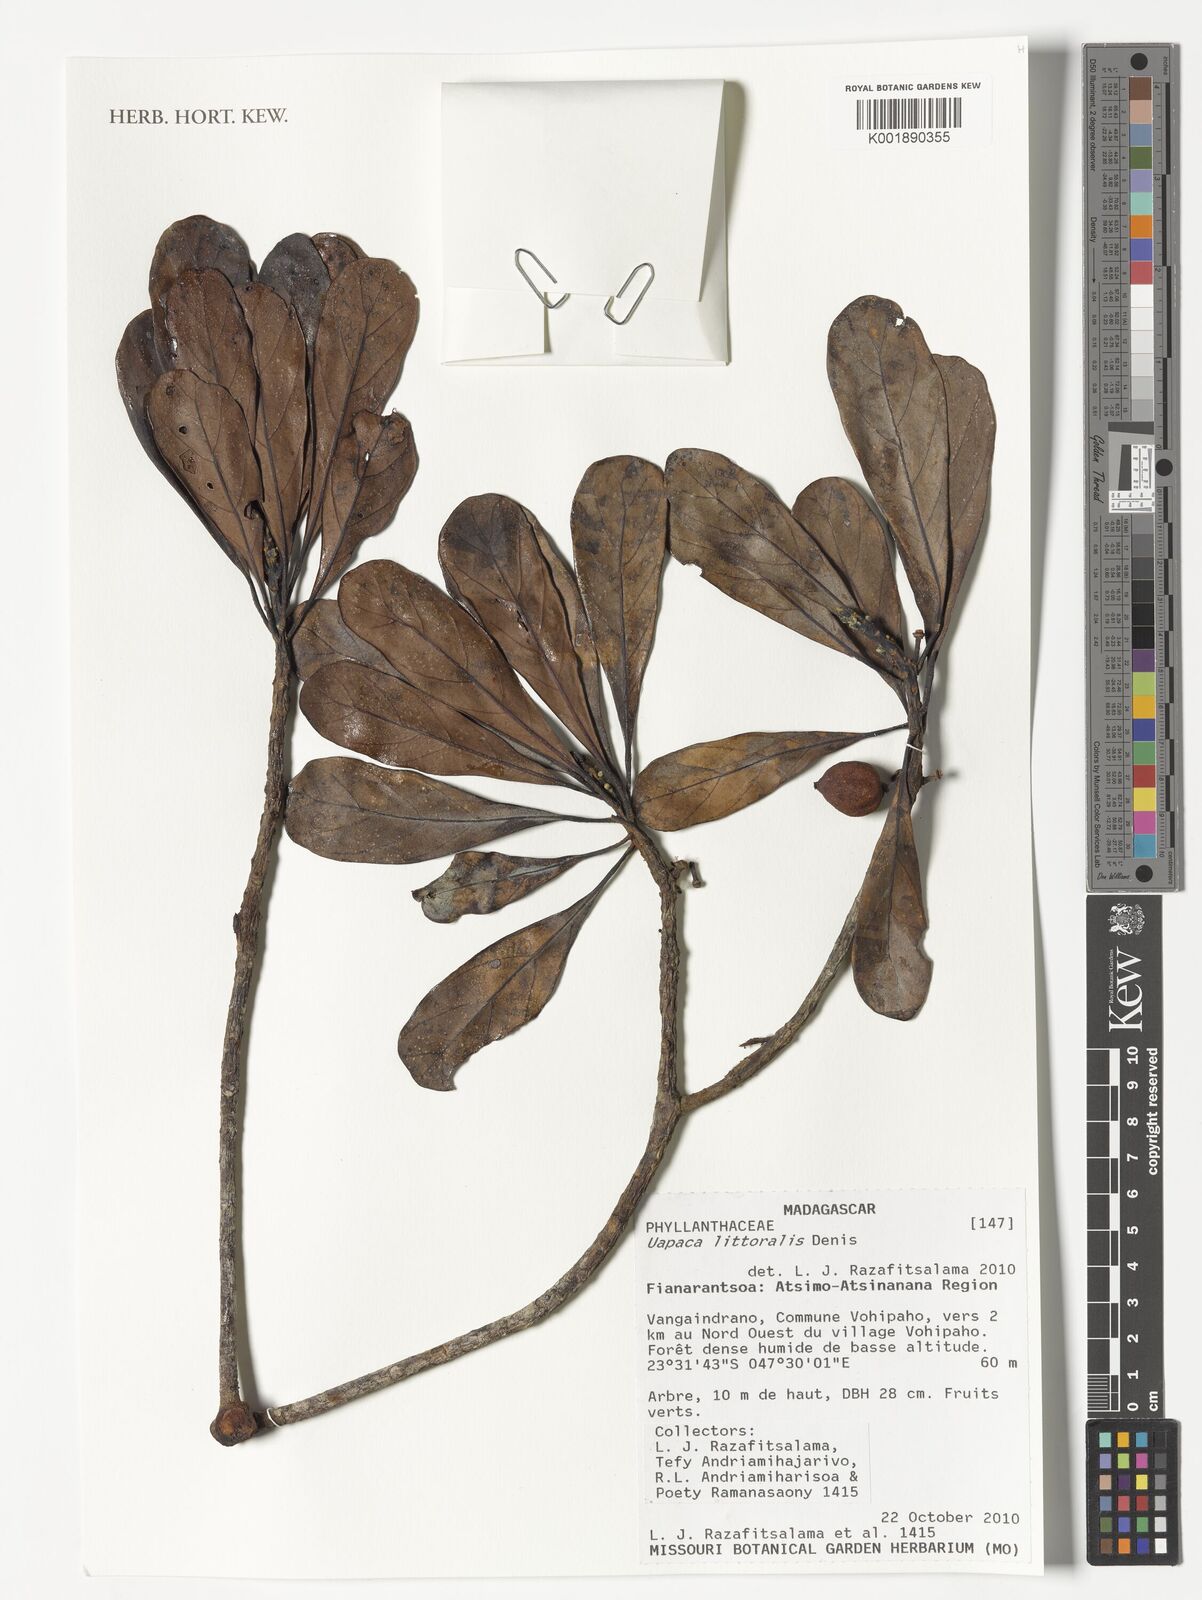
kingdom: Plantae
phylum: Tracheophyta
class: Magnoliopsida
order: Malpighiales
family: Phyllanthaceae
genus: Uapaca
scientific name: Uapaca littoralis
